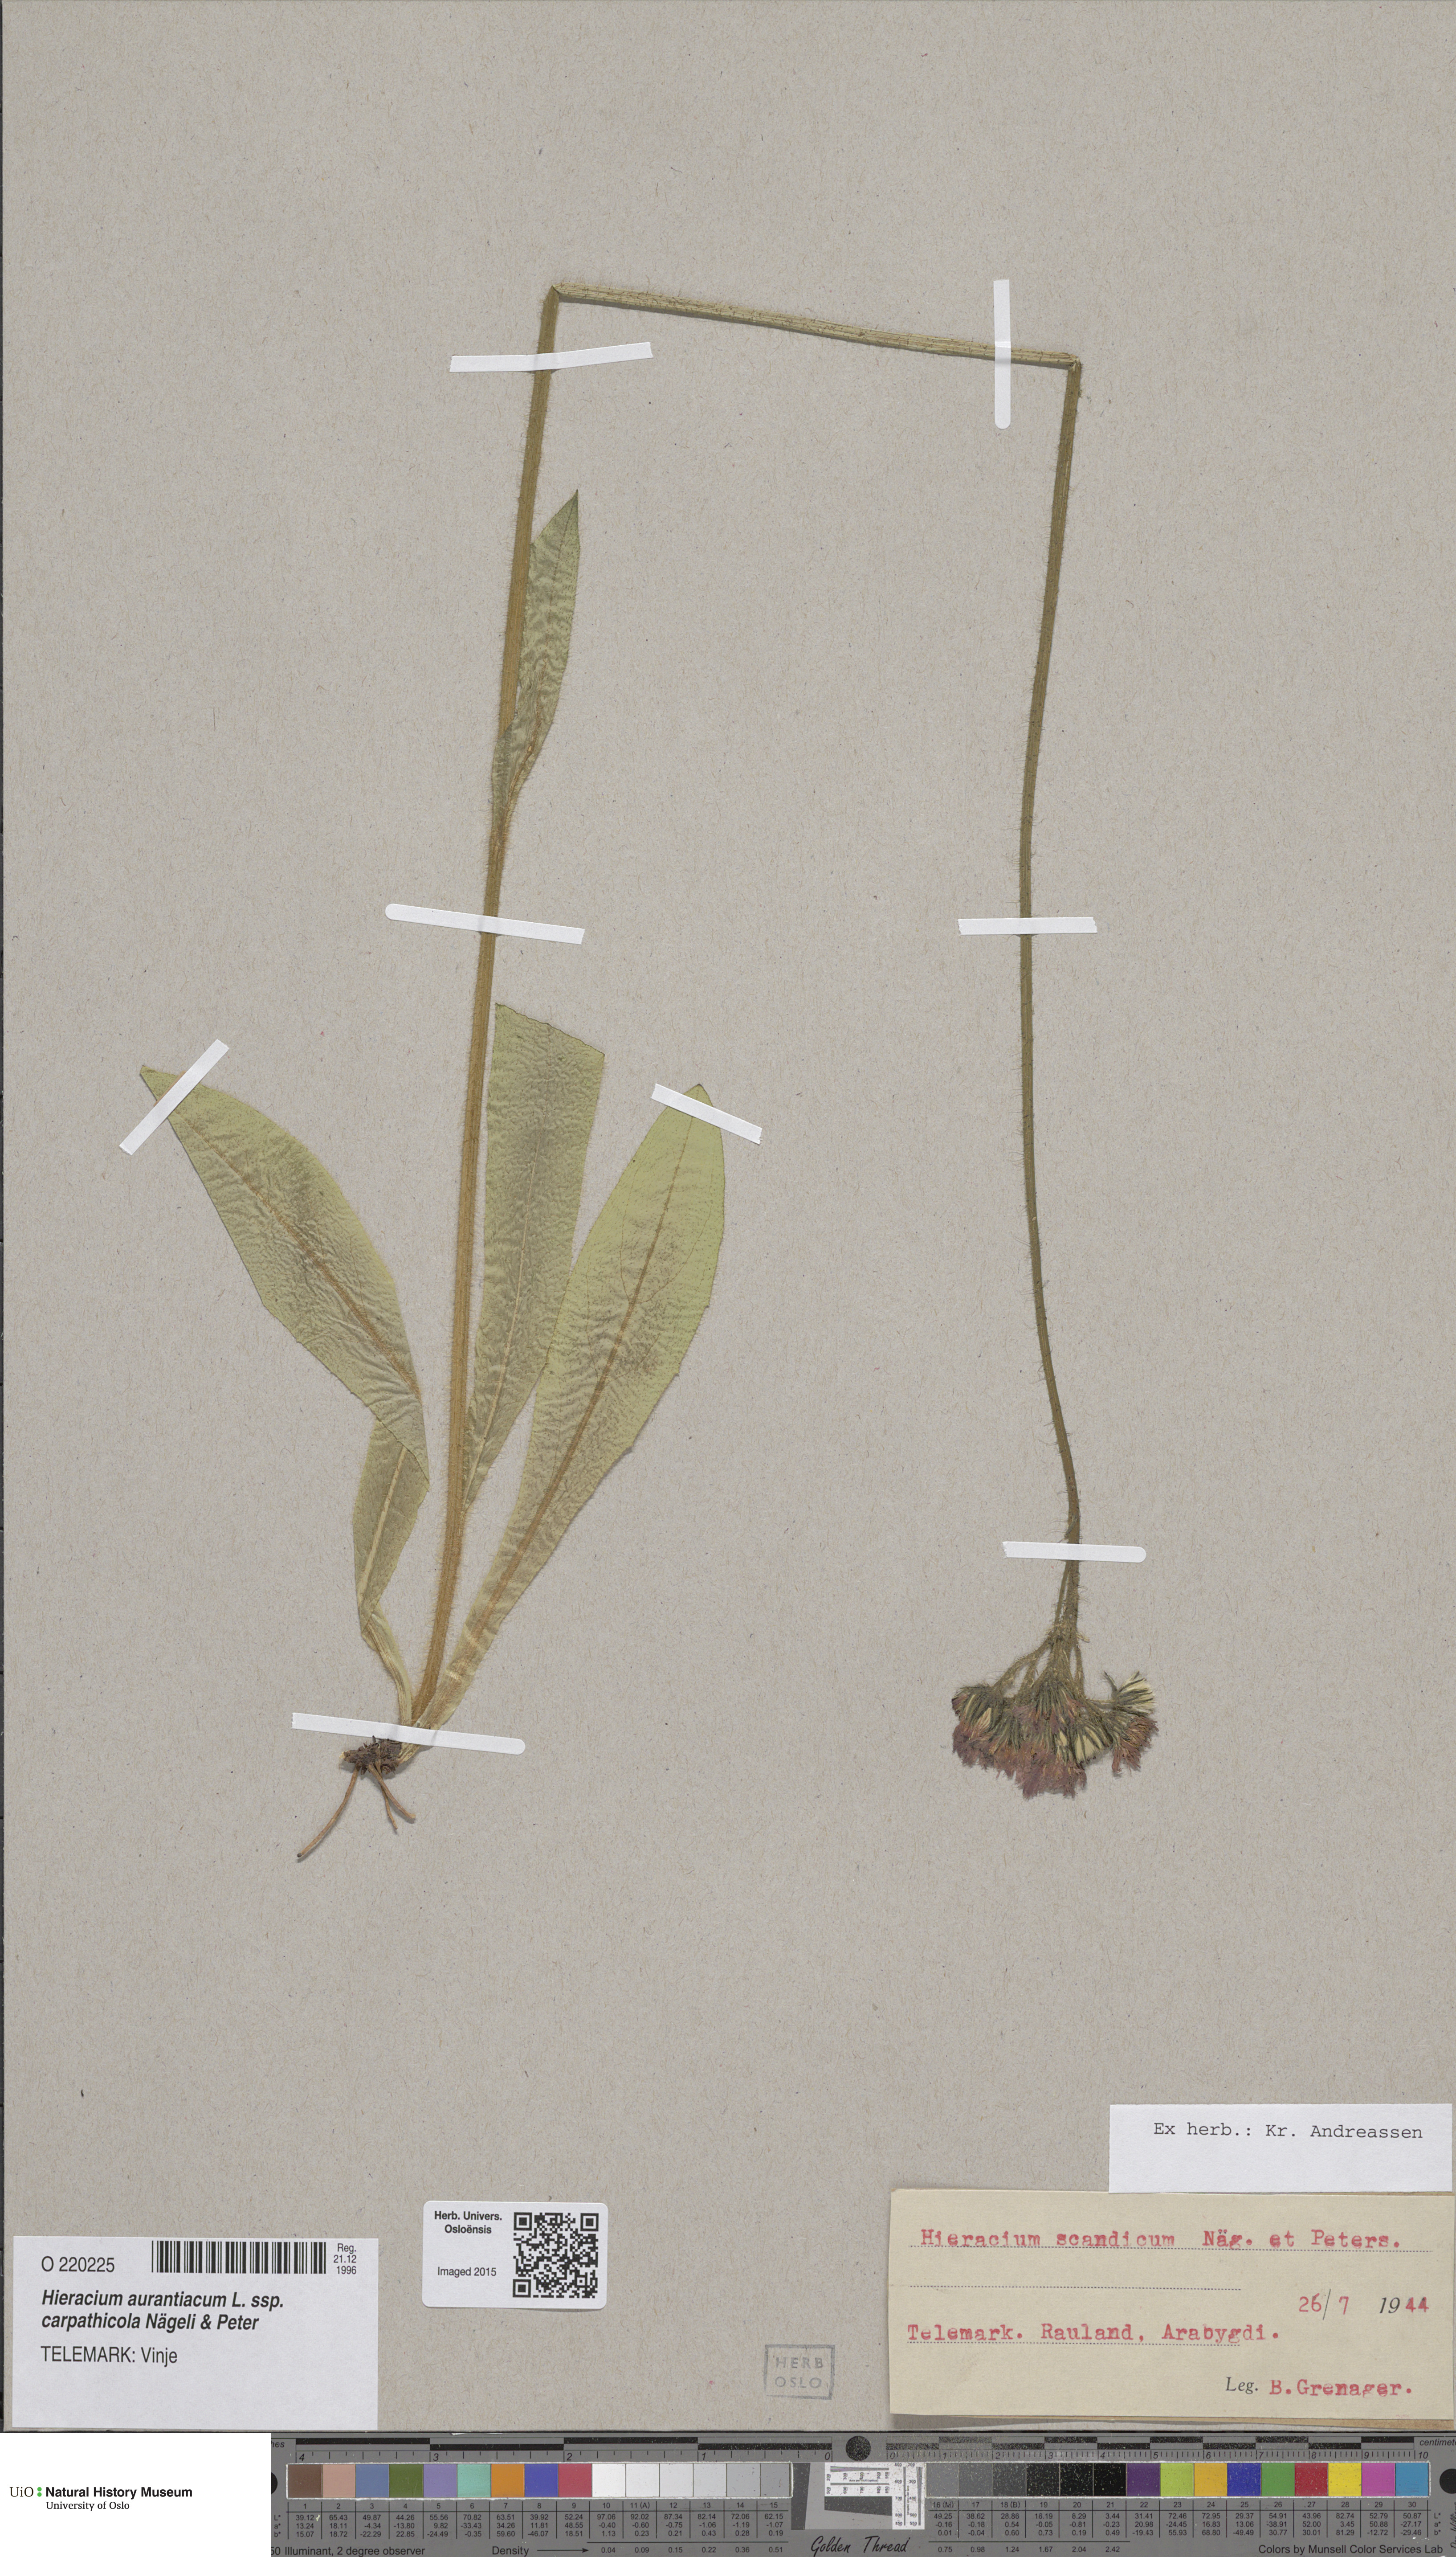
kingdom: Plantae
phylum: Tracheophyta
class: Magnoliopsida
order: Asterales
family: Asteraceae
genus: Pilosella
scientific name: Pilosella aurantiaca
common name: Fox-and-cubs
